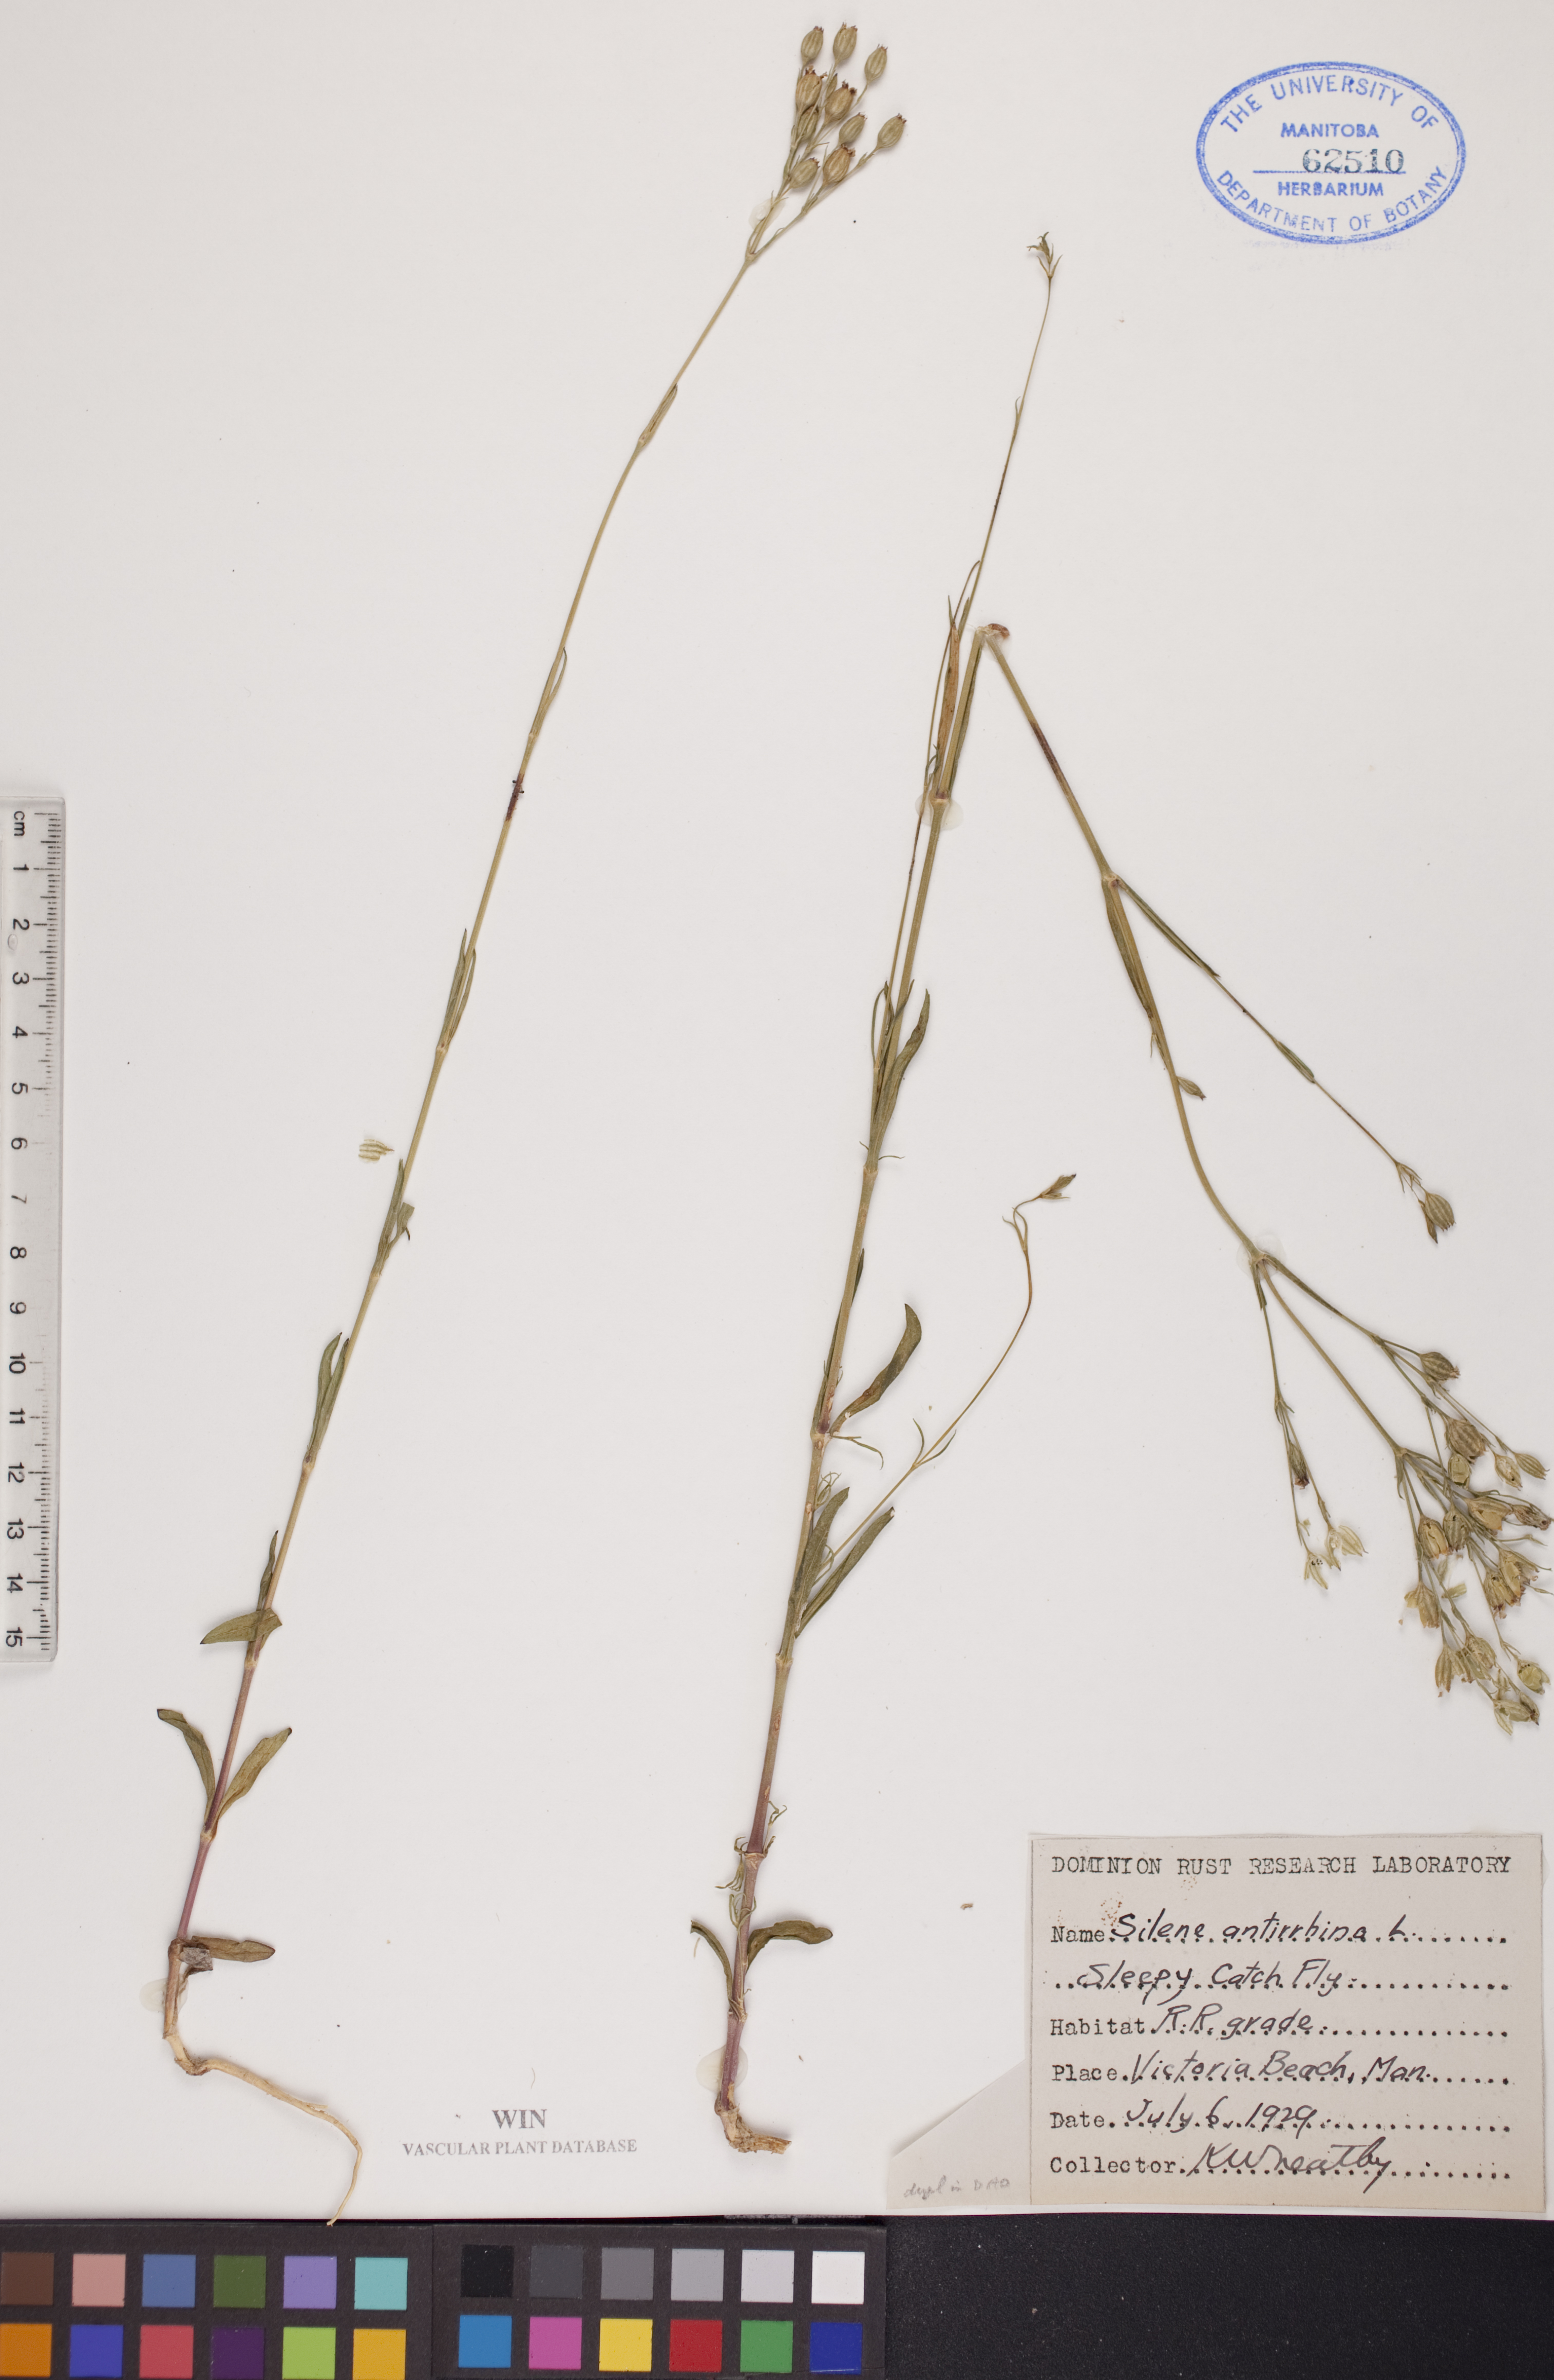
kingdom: Plantae
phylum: Tracheophyta
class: Magnoliopsida
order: Caryophyllales
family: Caryophyllaceae
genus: Silene
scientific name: Silene antirrhina
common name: Sleepy catchfly
